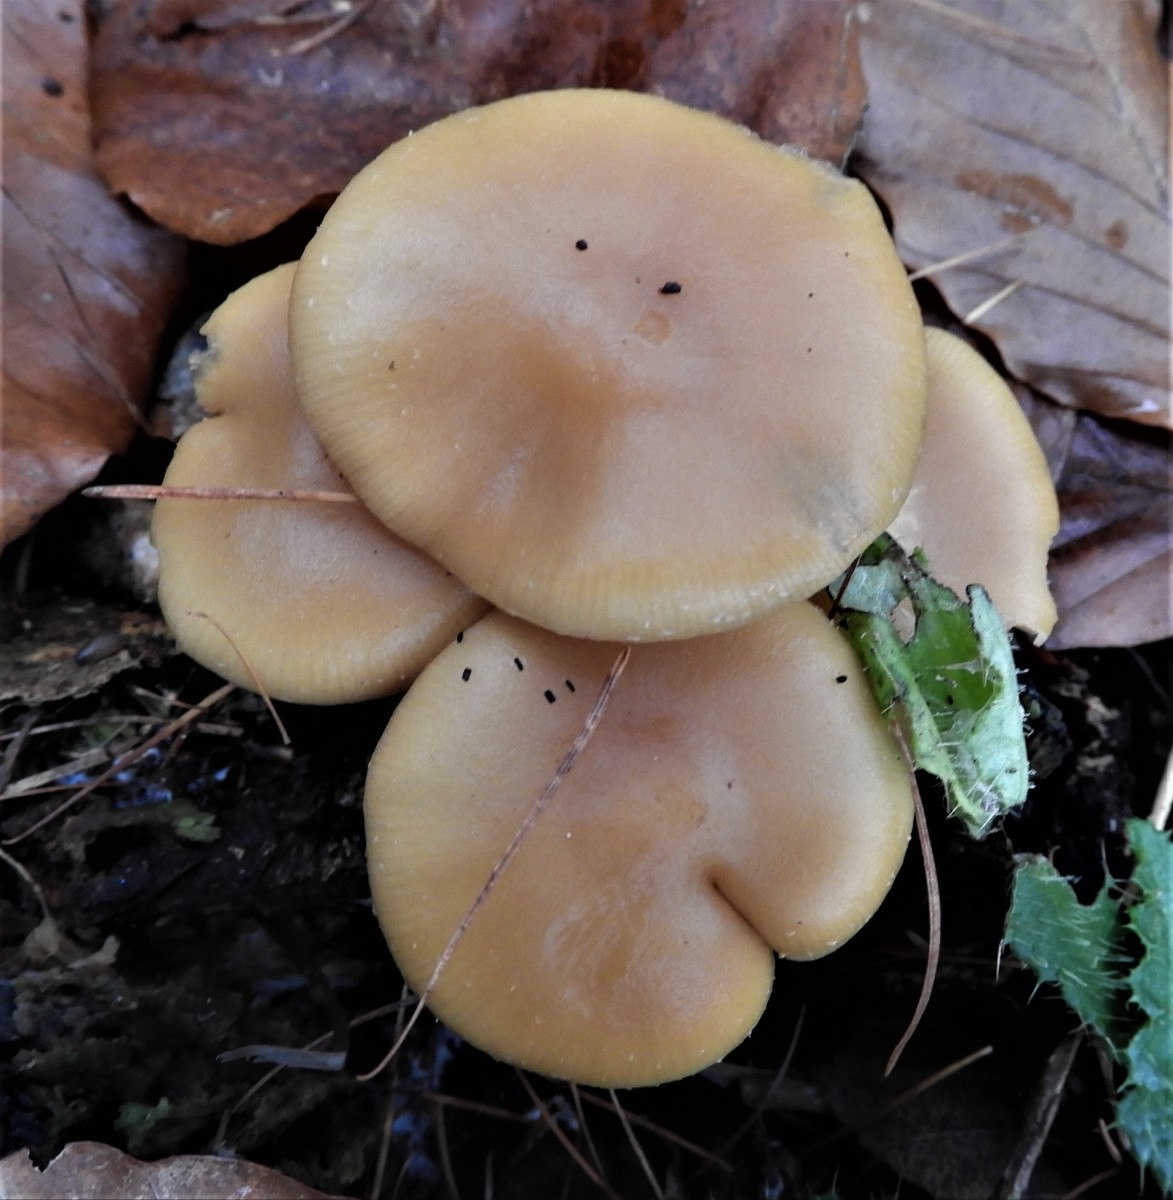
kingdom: Fungi
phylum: Basidiomycota
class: Agaricomycetes
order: Agaricales
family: Strophariaceae
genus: Kuehneromyces
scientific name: Kuehneromyces mutabilis
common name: foranderlig skælhat
